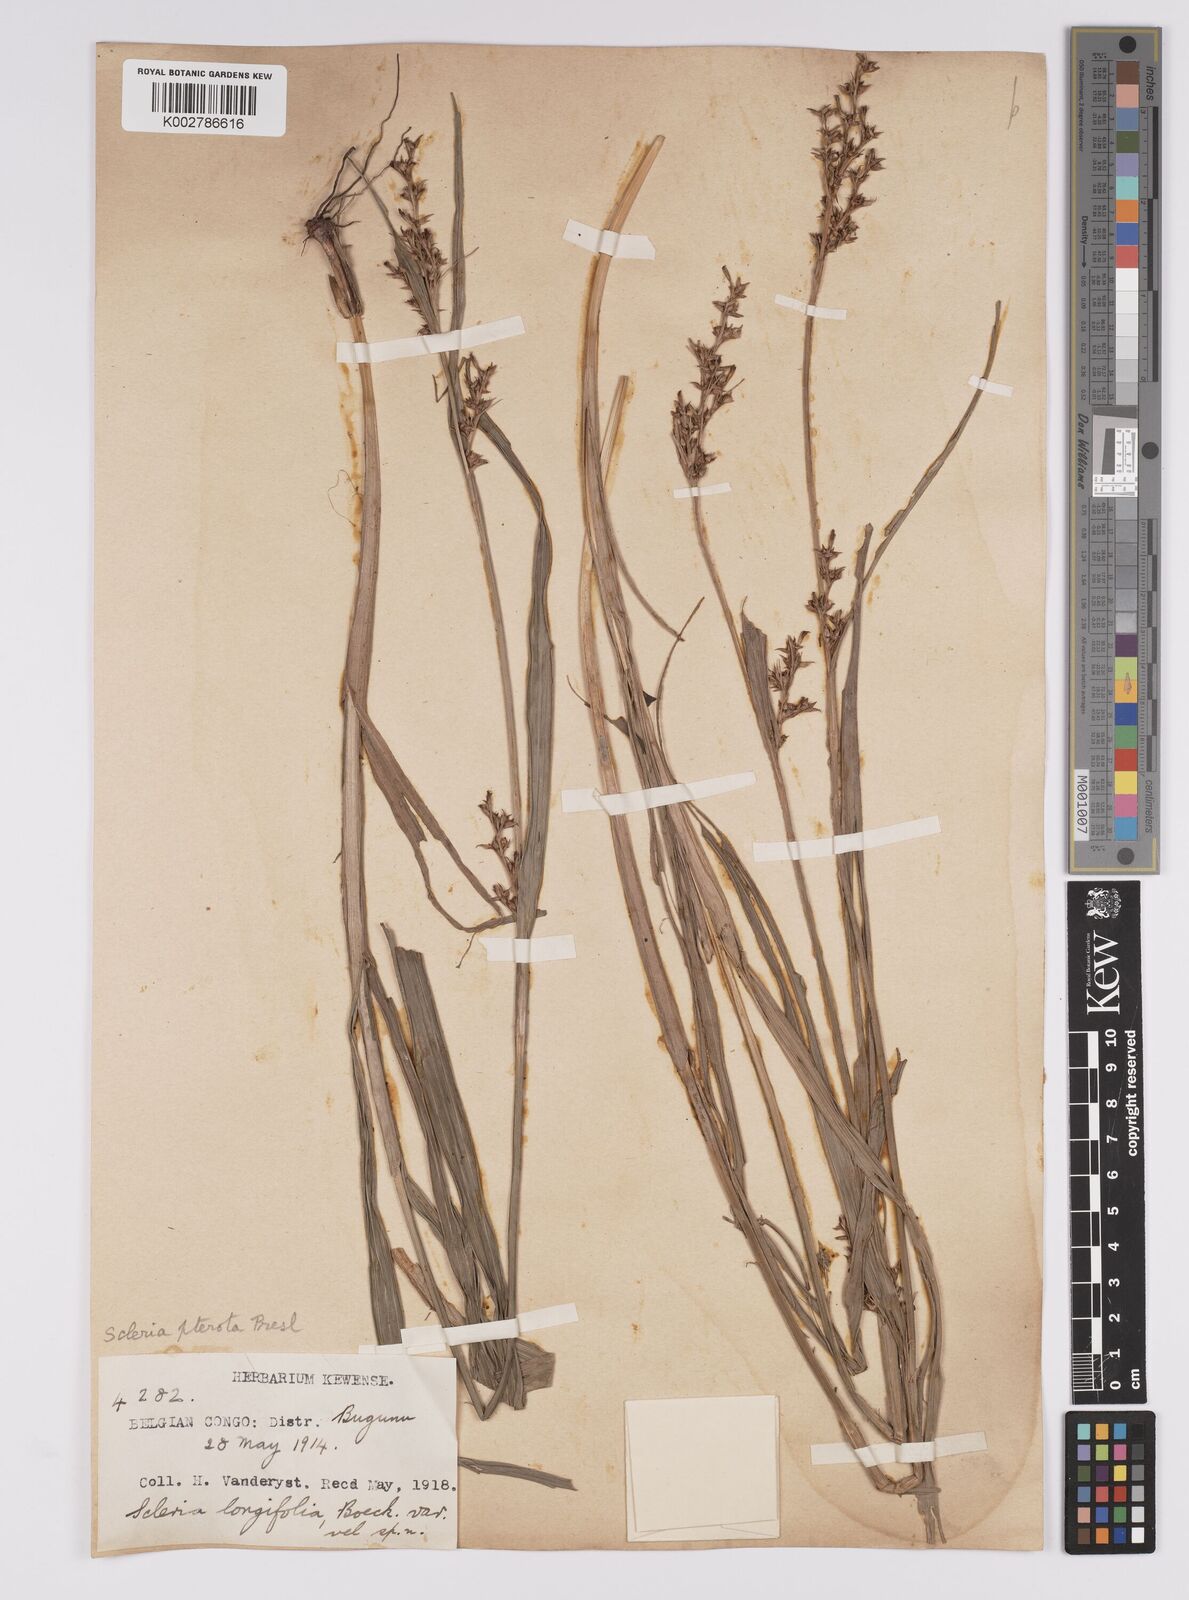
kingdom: Plantae
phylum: Tracheophyta
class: Liliopsida
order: Poales
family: Cyperaceae
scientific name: Cyperaceae
